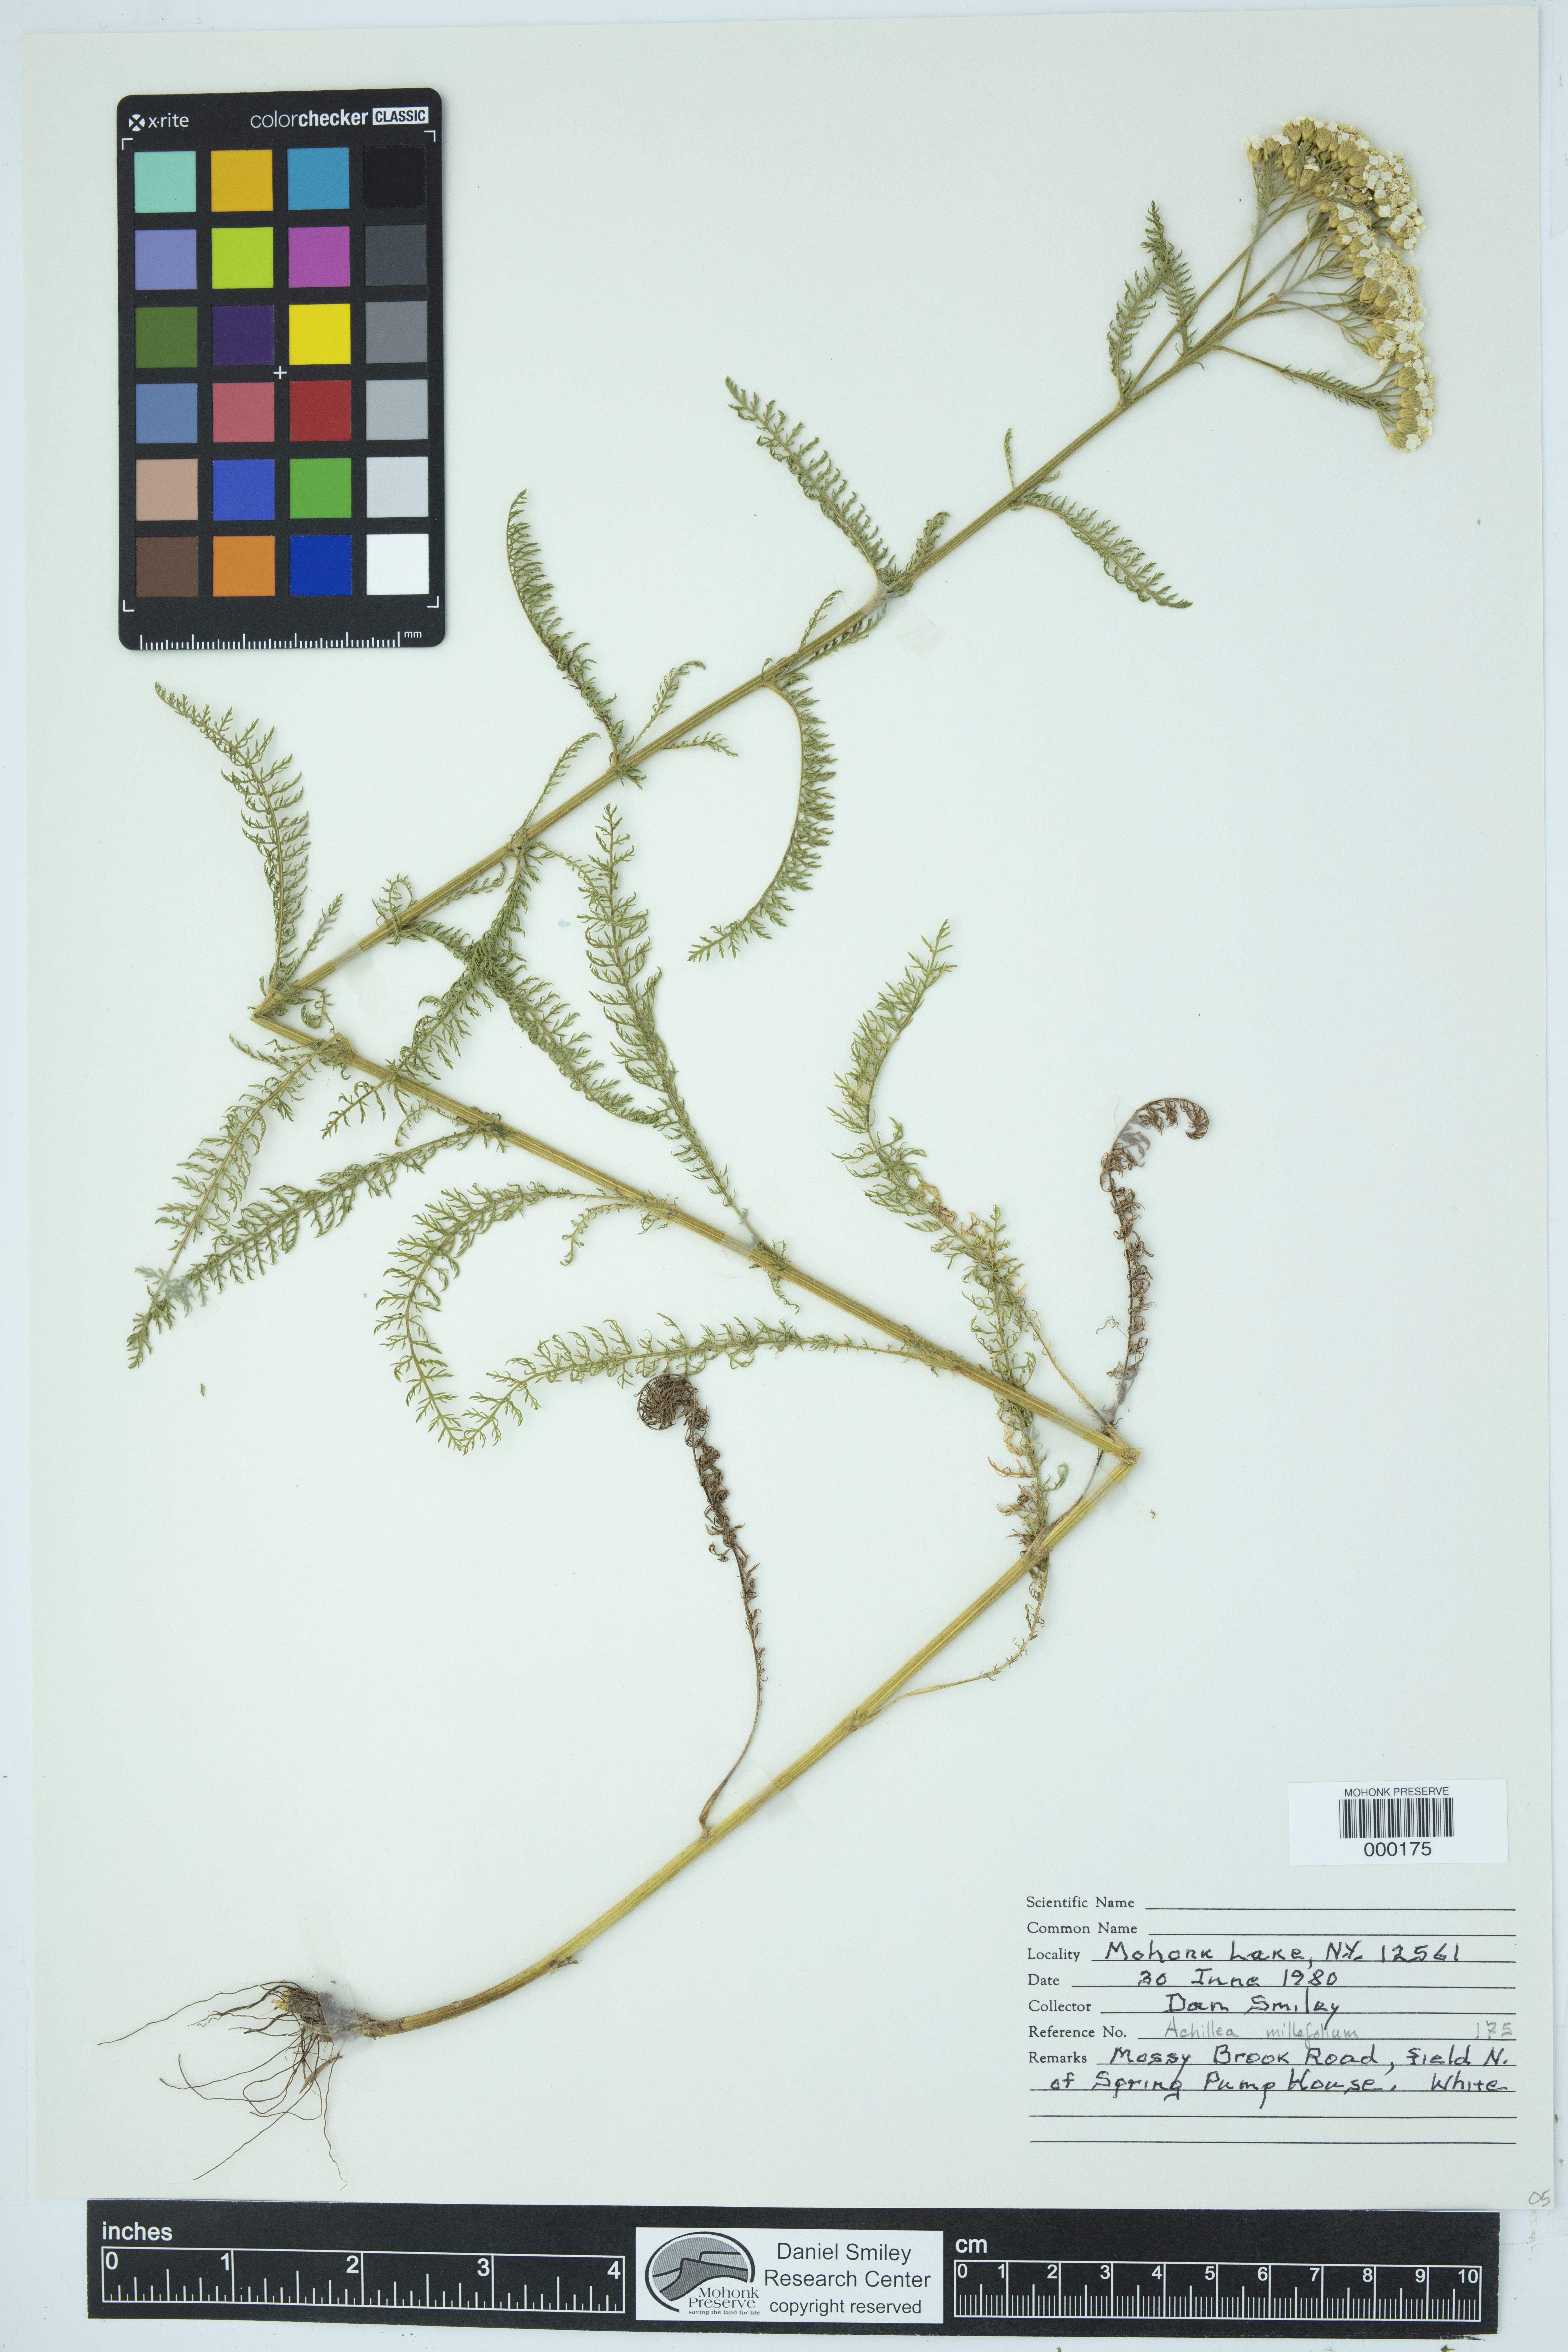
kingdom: Plantae
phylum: Tracheophyta
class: Magnoliopsida
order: Asterales
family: Asteraceae
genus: Achillea
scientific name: Achillea millefolium
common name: Yarrow
